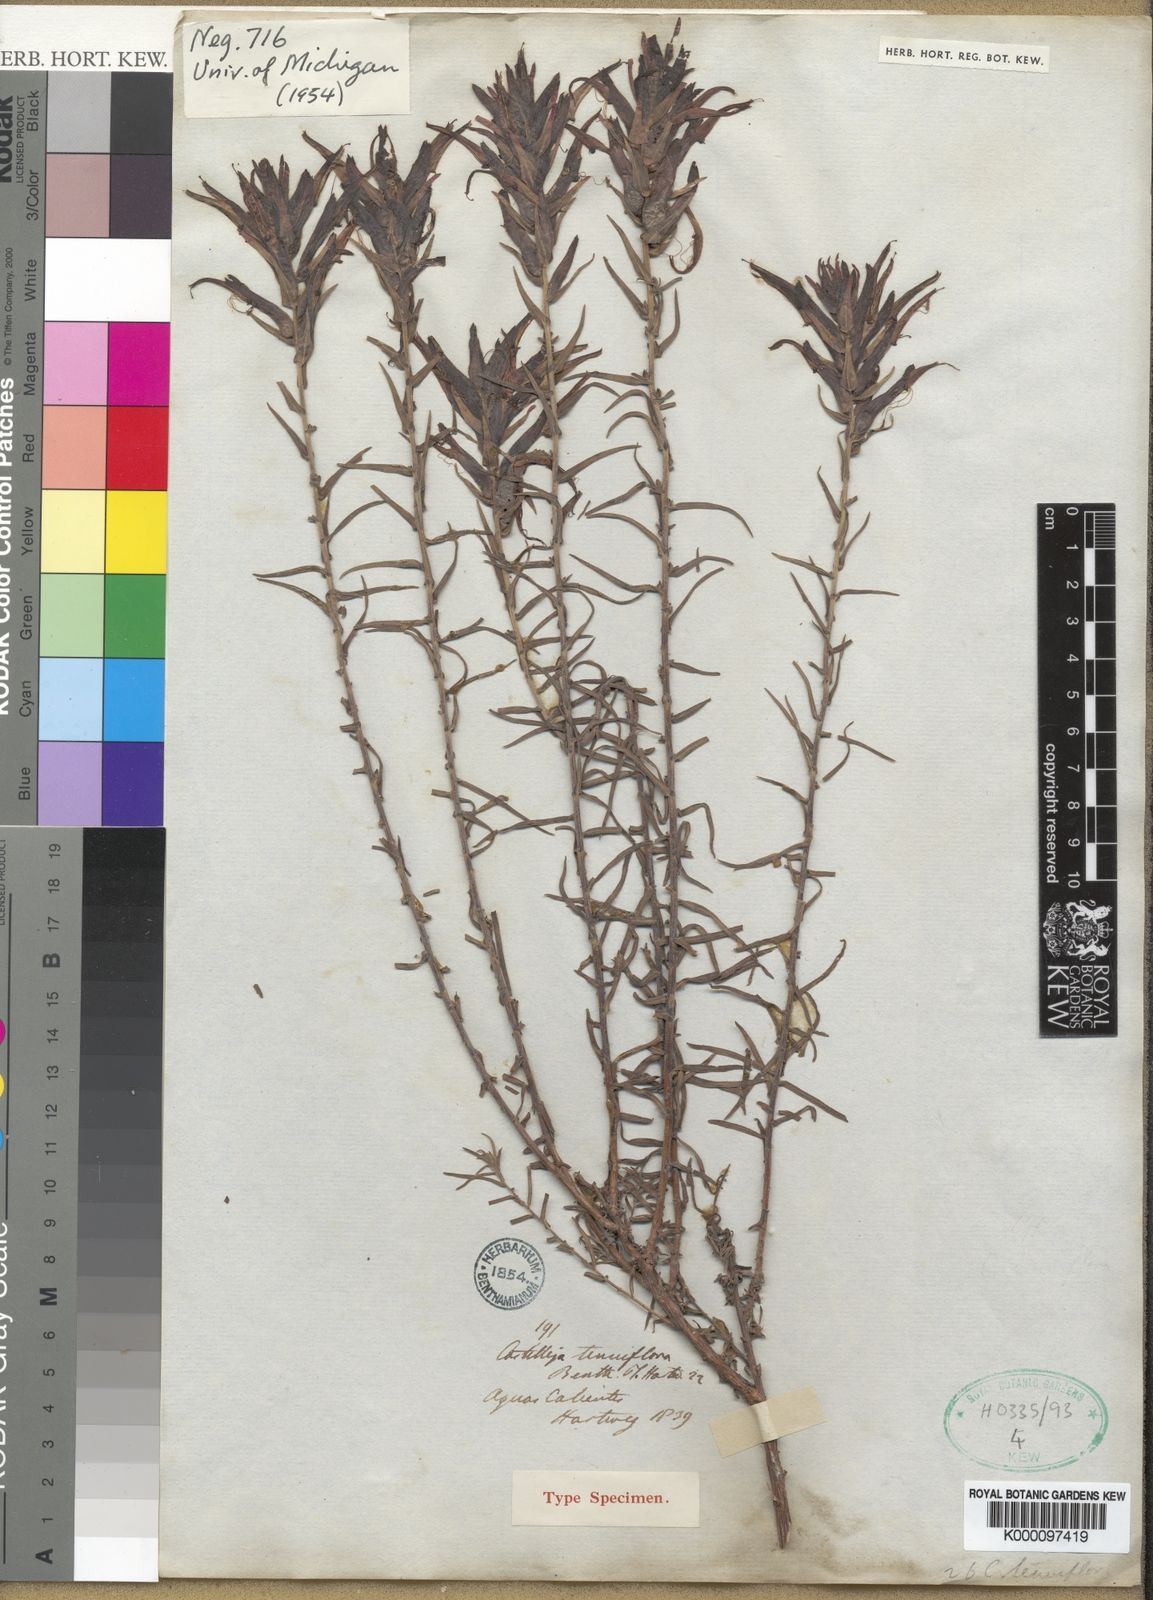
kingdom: Plantae
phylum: Tracheophyta
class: Magnoliopsida
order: Lamiales
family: Orobanchaceae
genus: Castilleja
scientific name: Castilleja tenuiflora
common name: Santa catalina indian paintbrush
